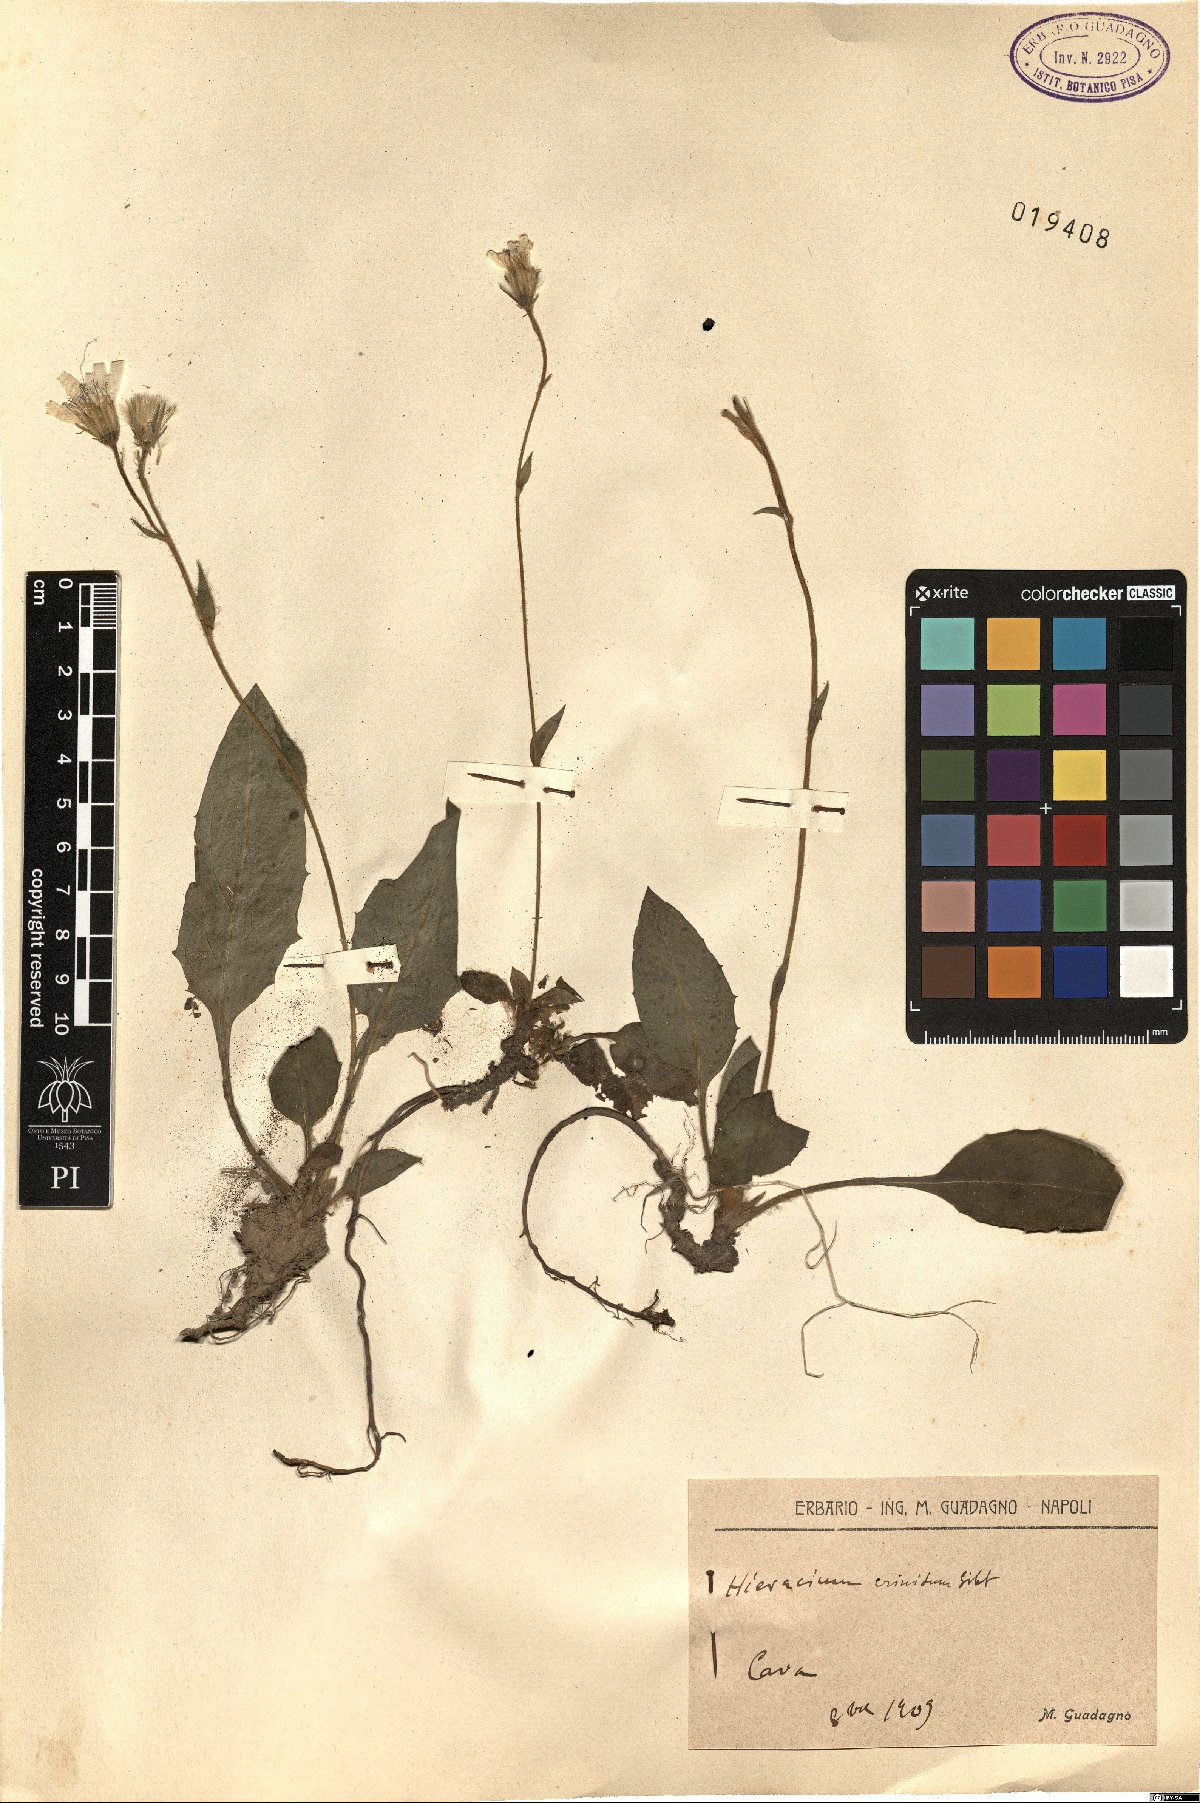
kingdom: Plantae
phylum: Tracheophyta
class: Magnoliopsida
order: Asterales
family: Asteraceae
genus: Hieracium
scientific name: Hieracium racemosum
